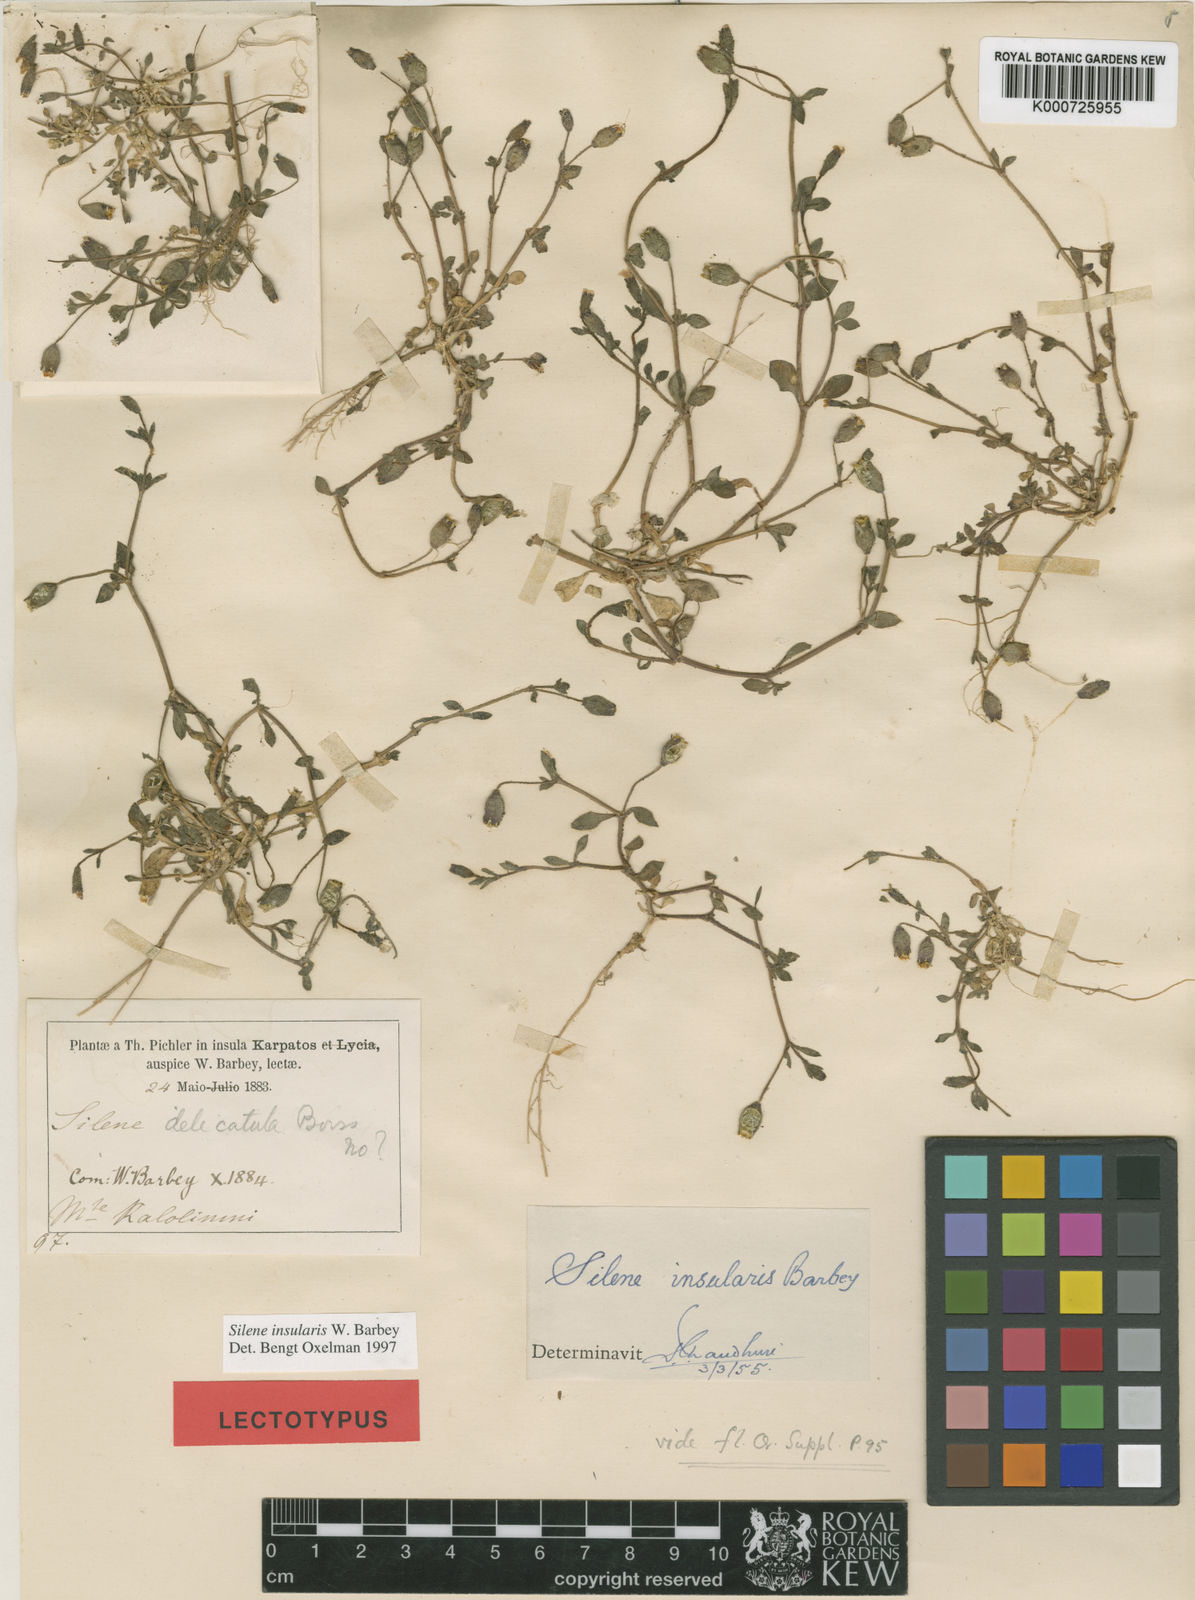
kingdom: Plantae
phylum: Tracheophyta
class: Magnoliopsida
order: Caryophyllales
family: Caryophyllaceae
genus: Silene
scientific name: Silene insularis
